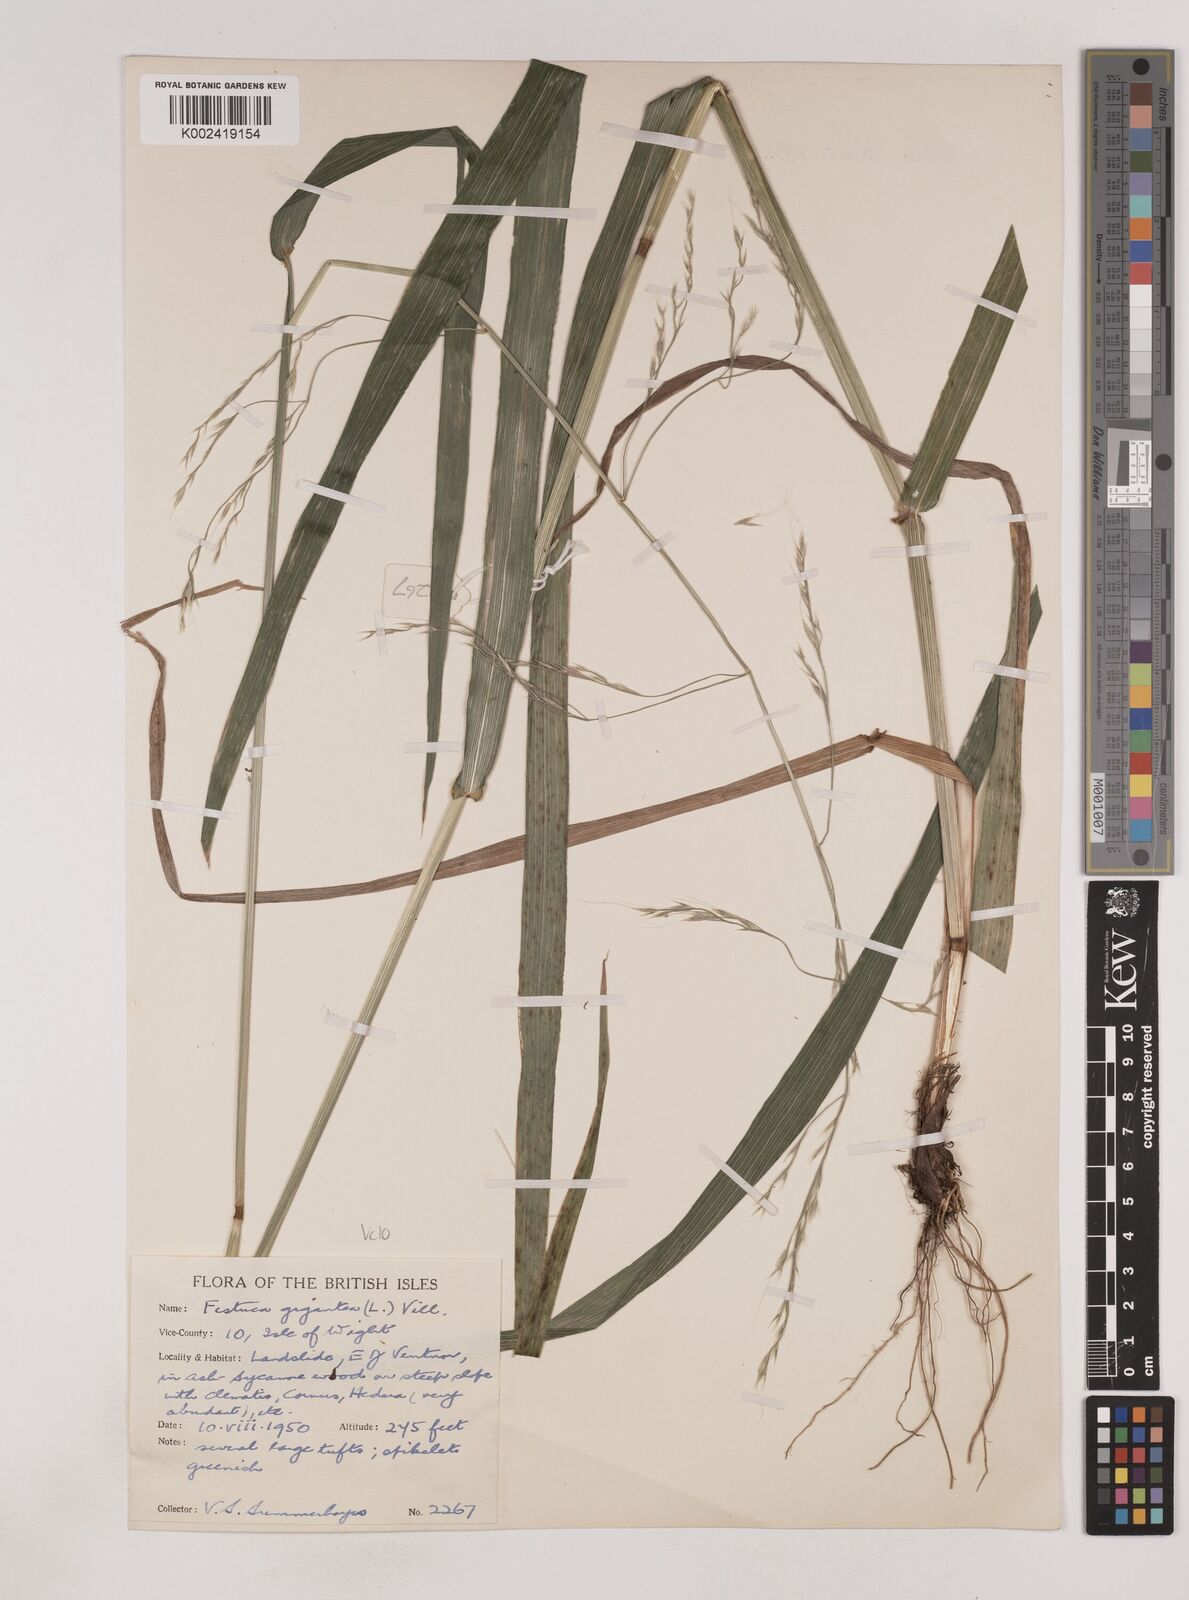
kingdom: Plantae
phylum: Tracheophyta
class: Liliopsida
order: Poales
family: Poaceae
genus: Lolium
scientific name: Lolium giganteum
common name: Giant fescue
